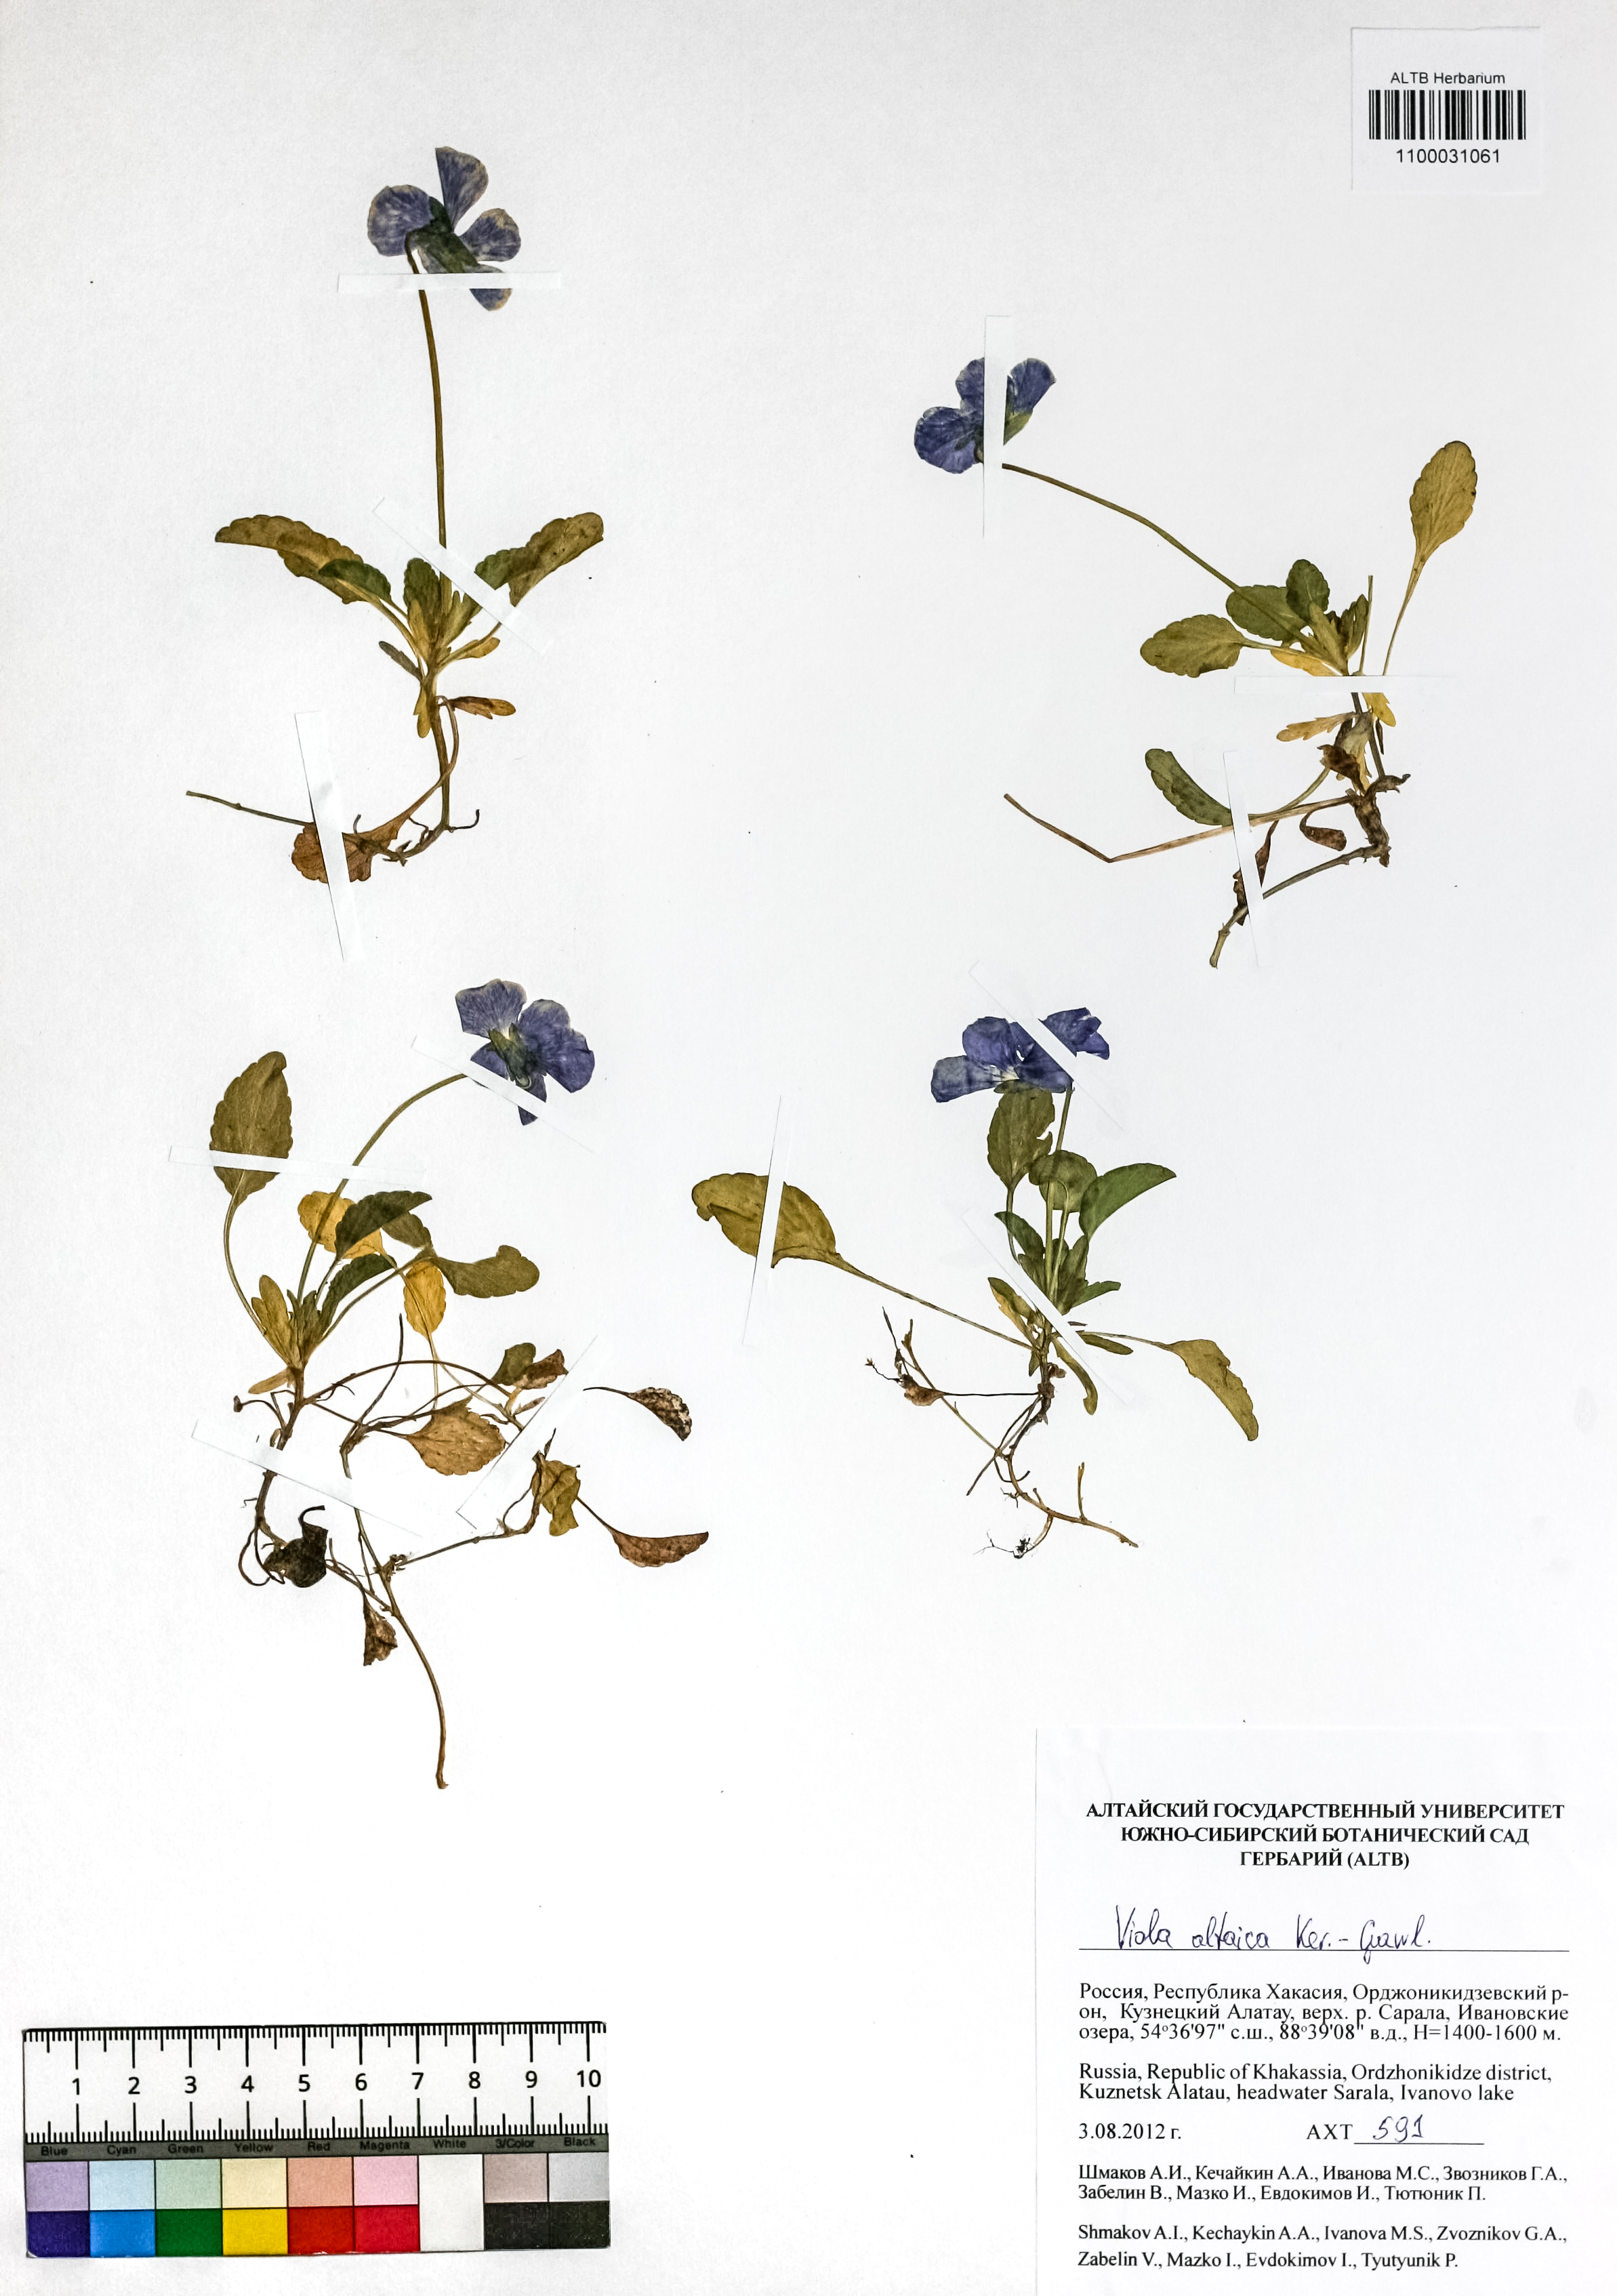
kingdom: Plantae
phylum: Tracheophyta
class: Magnoliopsida
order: Malpighiales
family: Violaceae
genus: Viola
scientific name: Viola altaica
